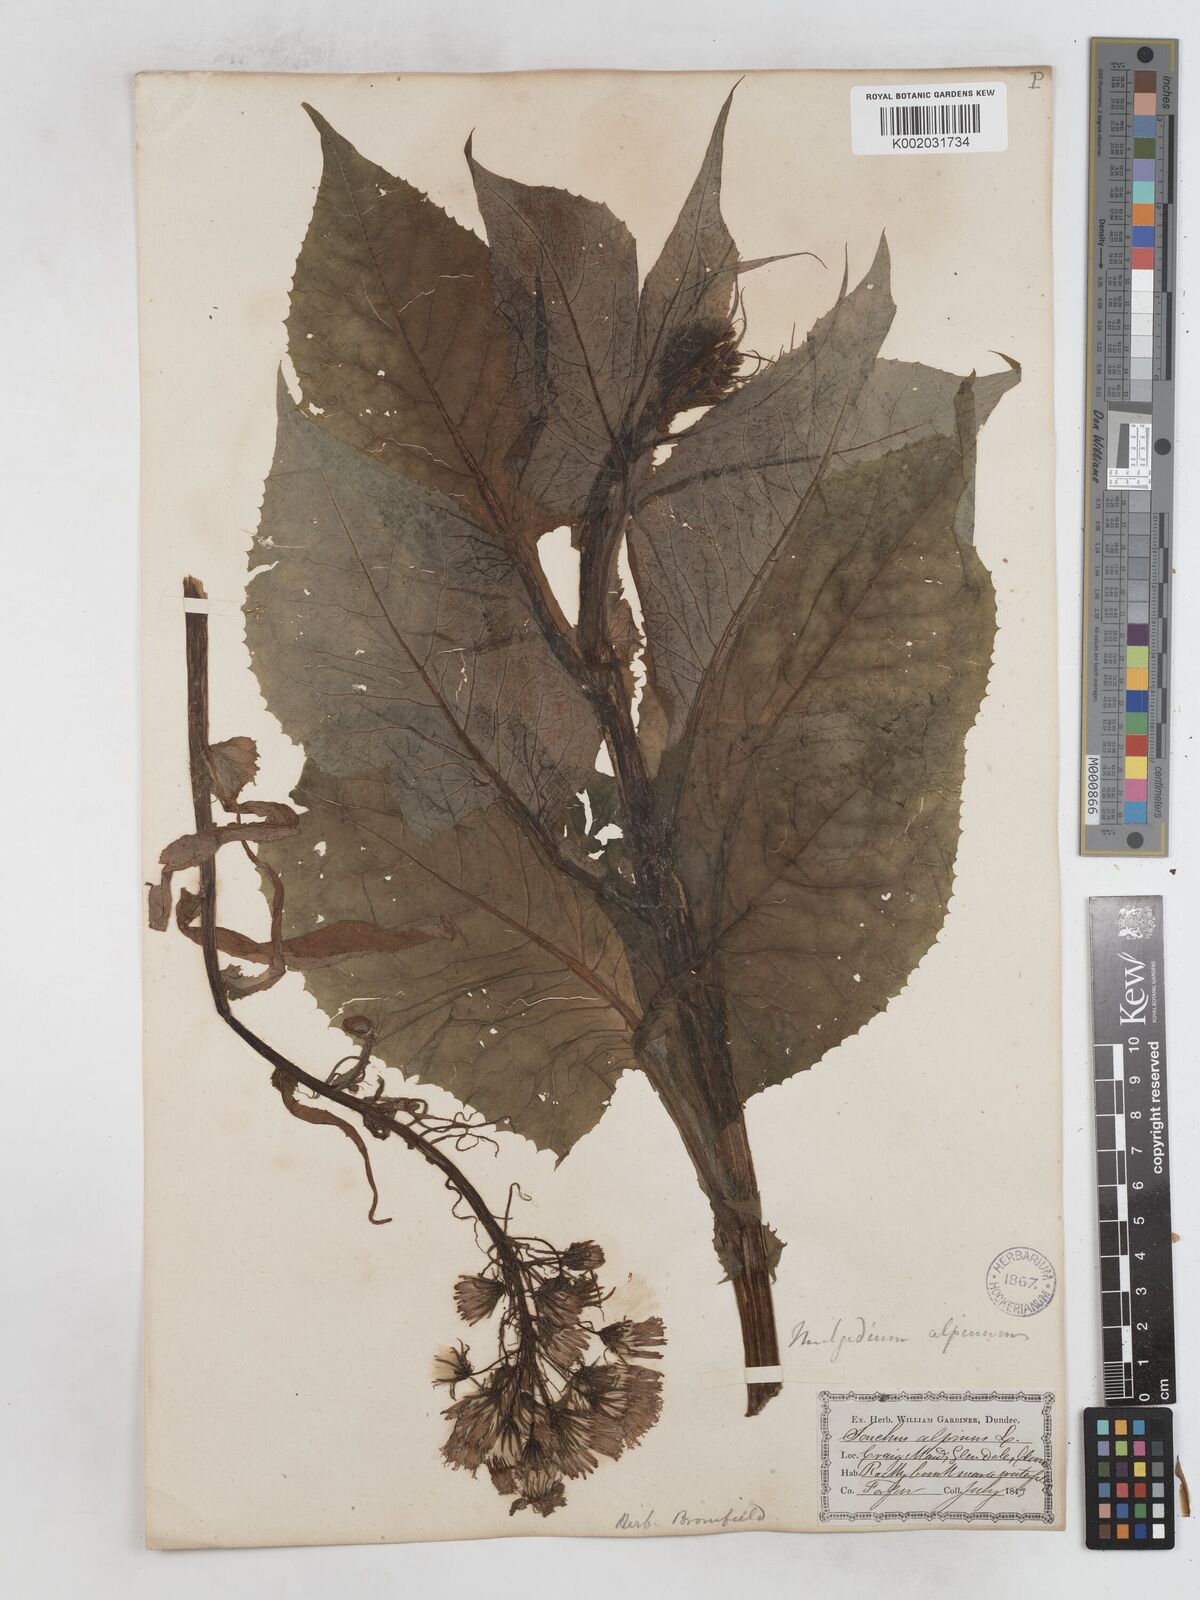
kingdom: Plantae
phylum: Tracheophyta
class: Magnoliopsida
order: Asterales
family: Asteraceae
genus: Cicerbita
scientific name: Cicerbita alpina
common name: Alpine blue-sow-thistle
